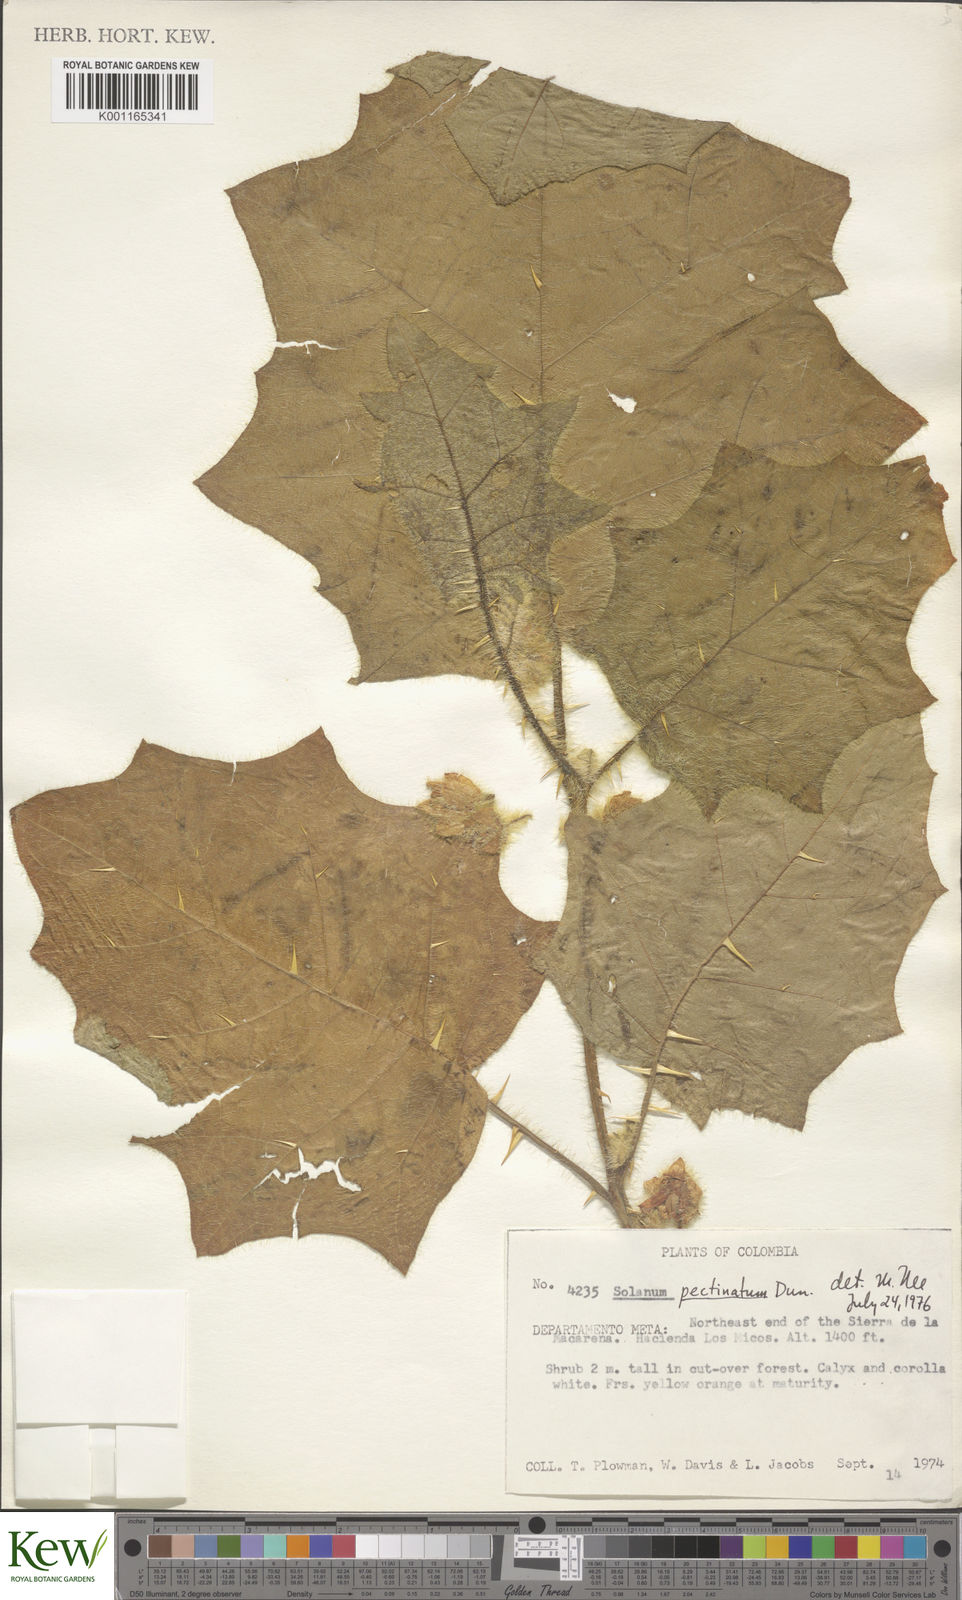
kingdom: Plantae
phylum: Tracheophyta
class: Magnoliopsida
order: Solanales
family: Solanaceae
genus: Solanum
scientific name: Solanum pectinatum
